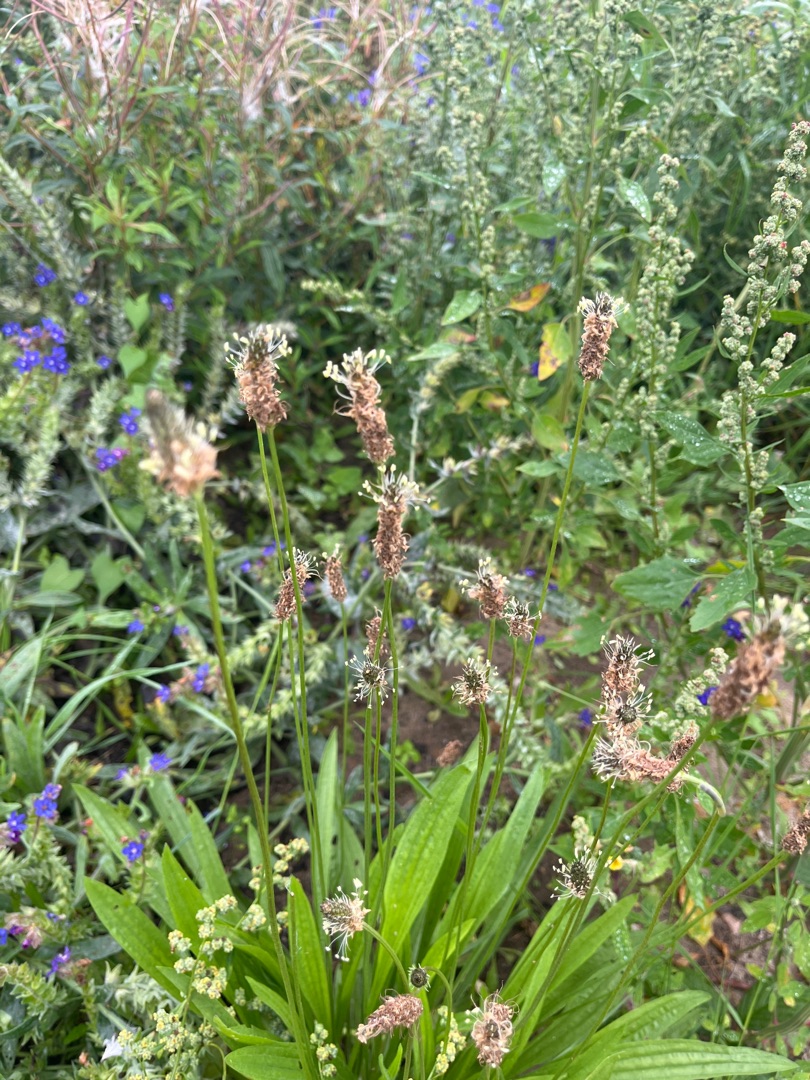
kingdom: Plantae
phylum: Tracheophyta
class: Magnoliopsida
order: Lamiales
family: Plantaginaceae
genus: Plantago
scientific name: Plantago lanceolata
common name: Lancet-vejbred
